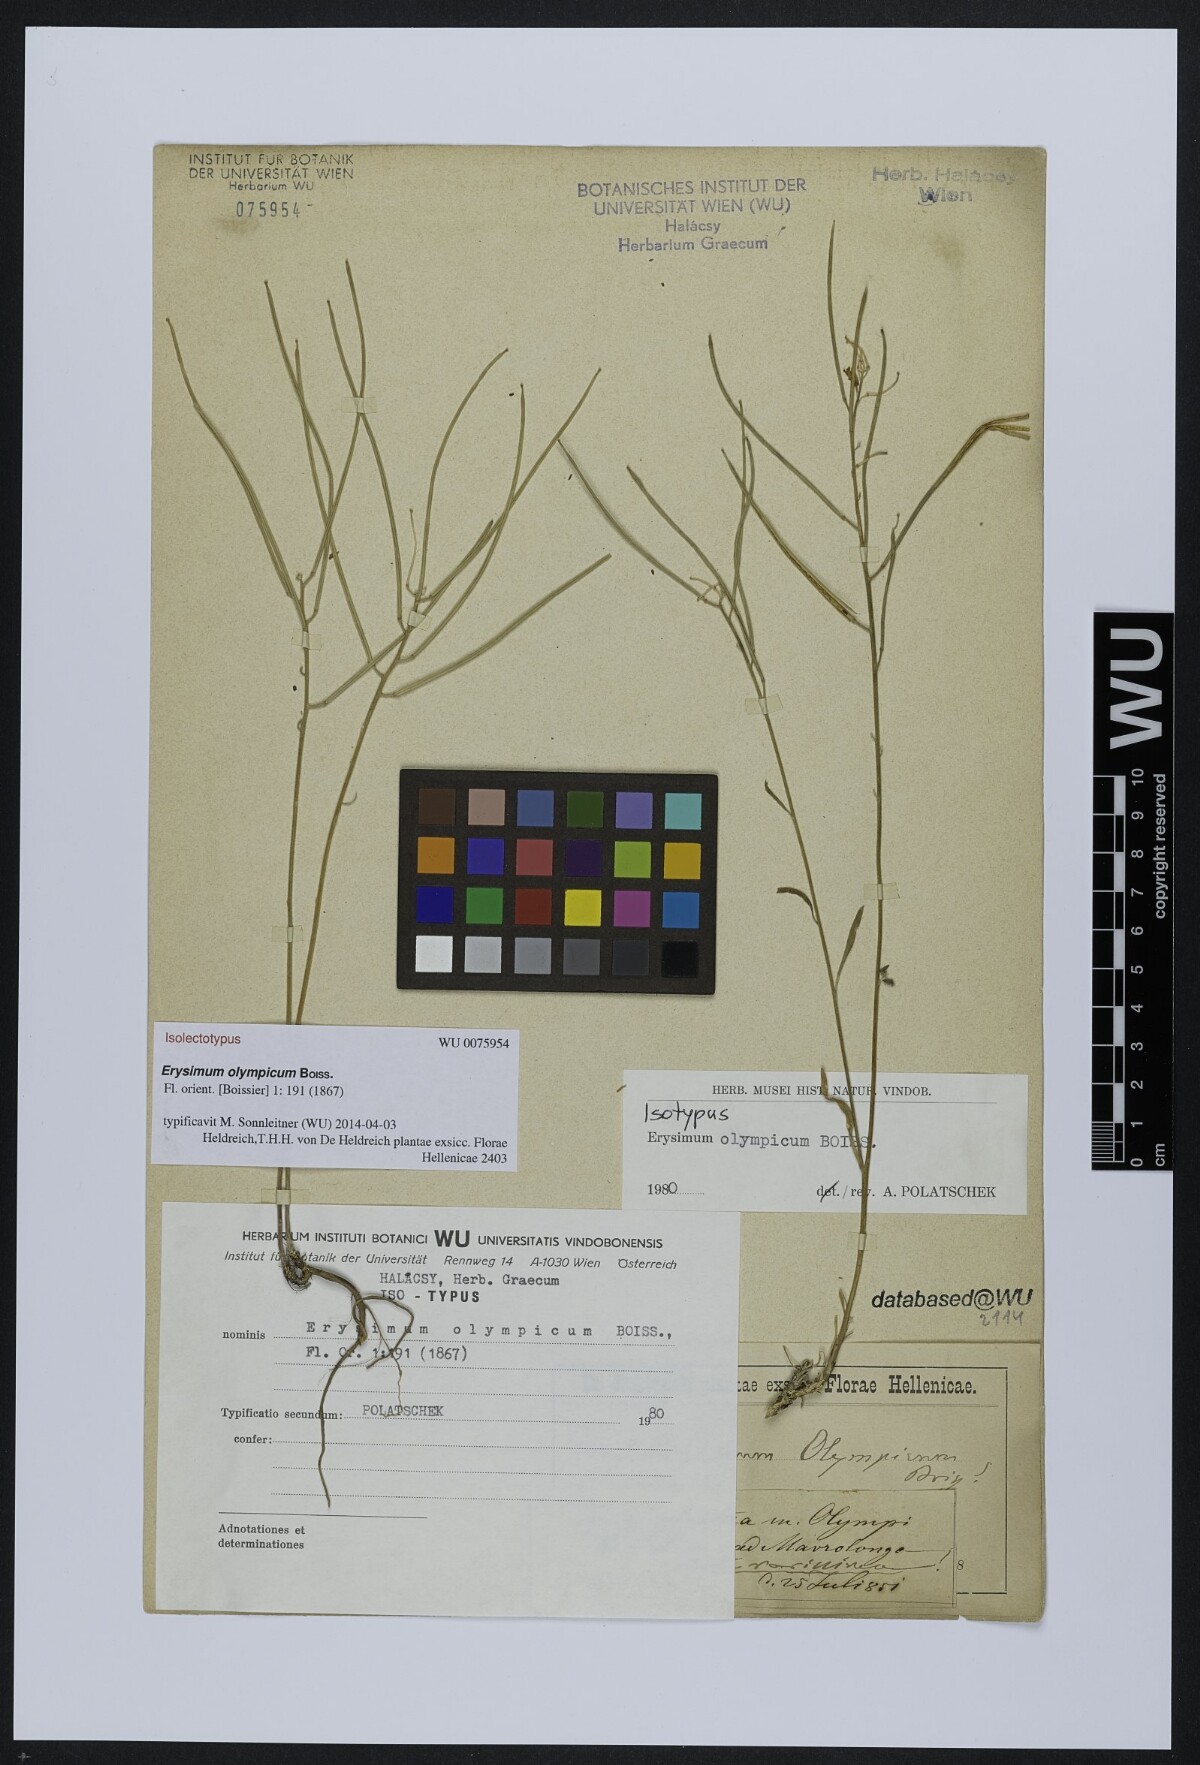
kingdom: Plantae
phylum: Tracheophyta
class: Magnoliopsida
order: Brassicales
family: Brassicaceae
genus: Erysimum
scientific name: Erysimum olympicum
